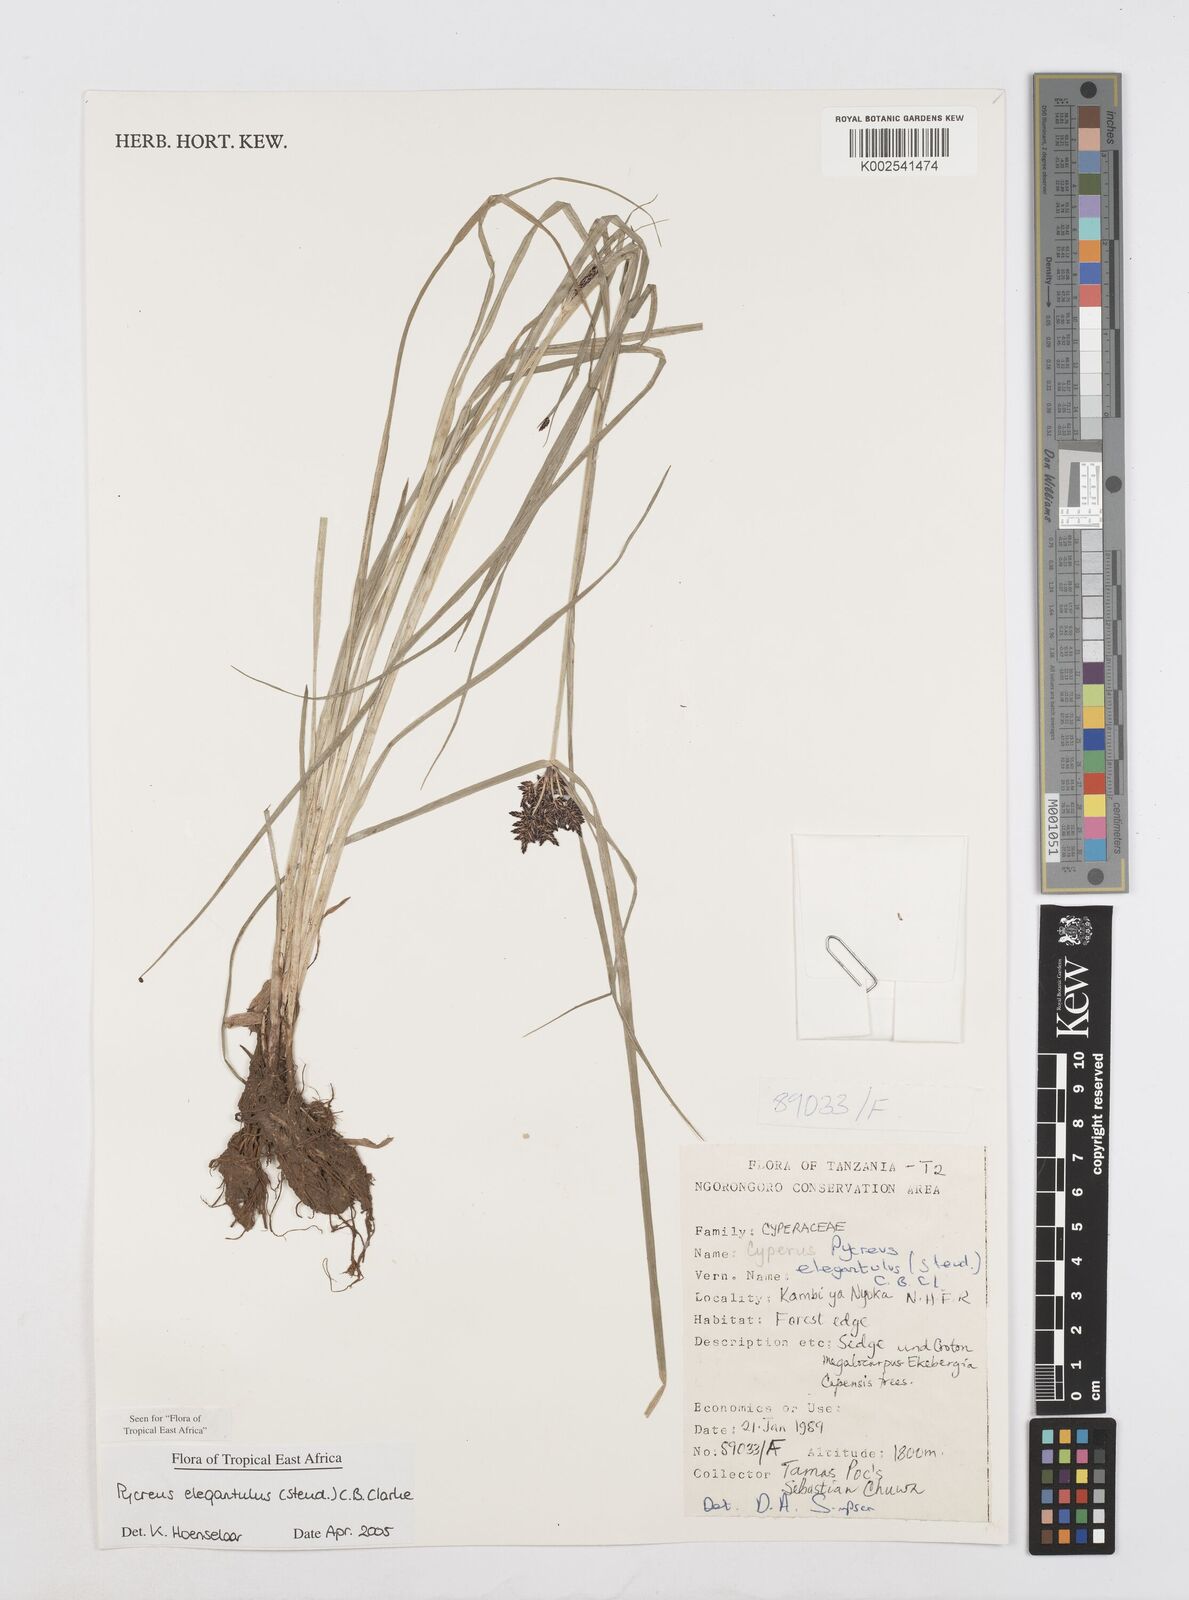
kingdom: Plantae
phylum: Tracheophyta
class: Liliopsida
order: Poales
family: Cyperaceae
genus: Cyperus
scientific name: Cyperus elegantulus
